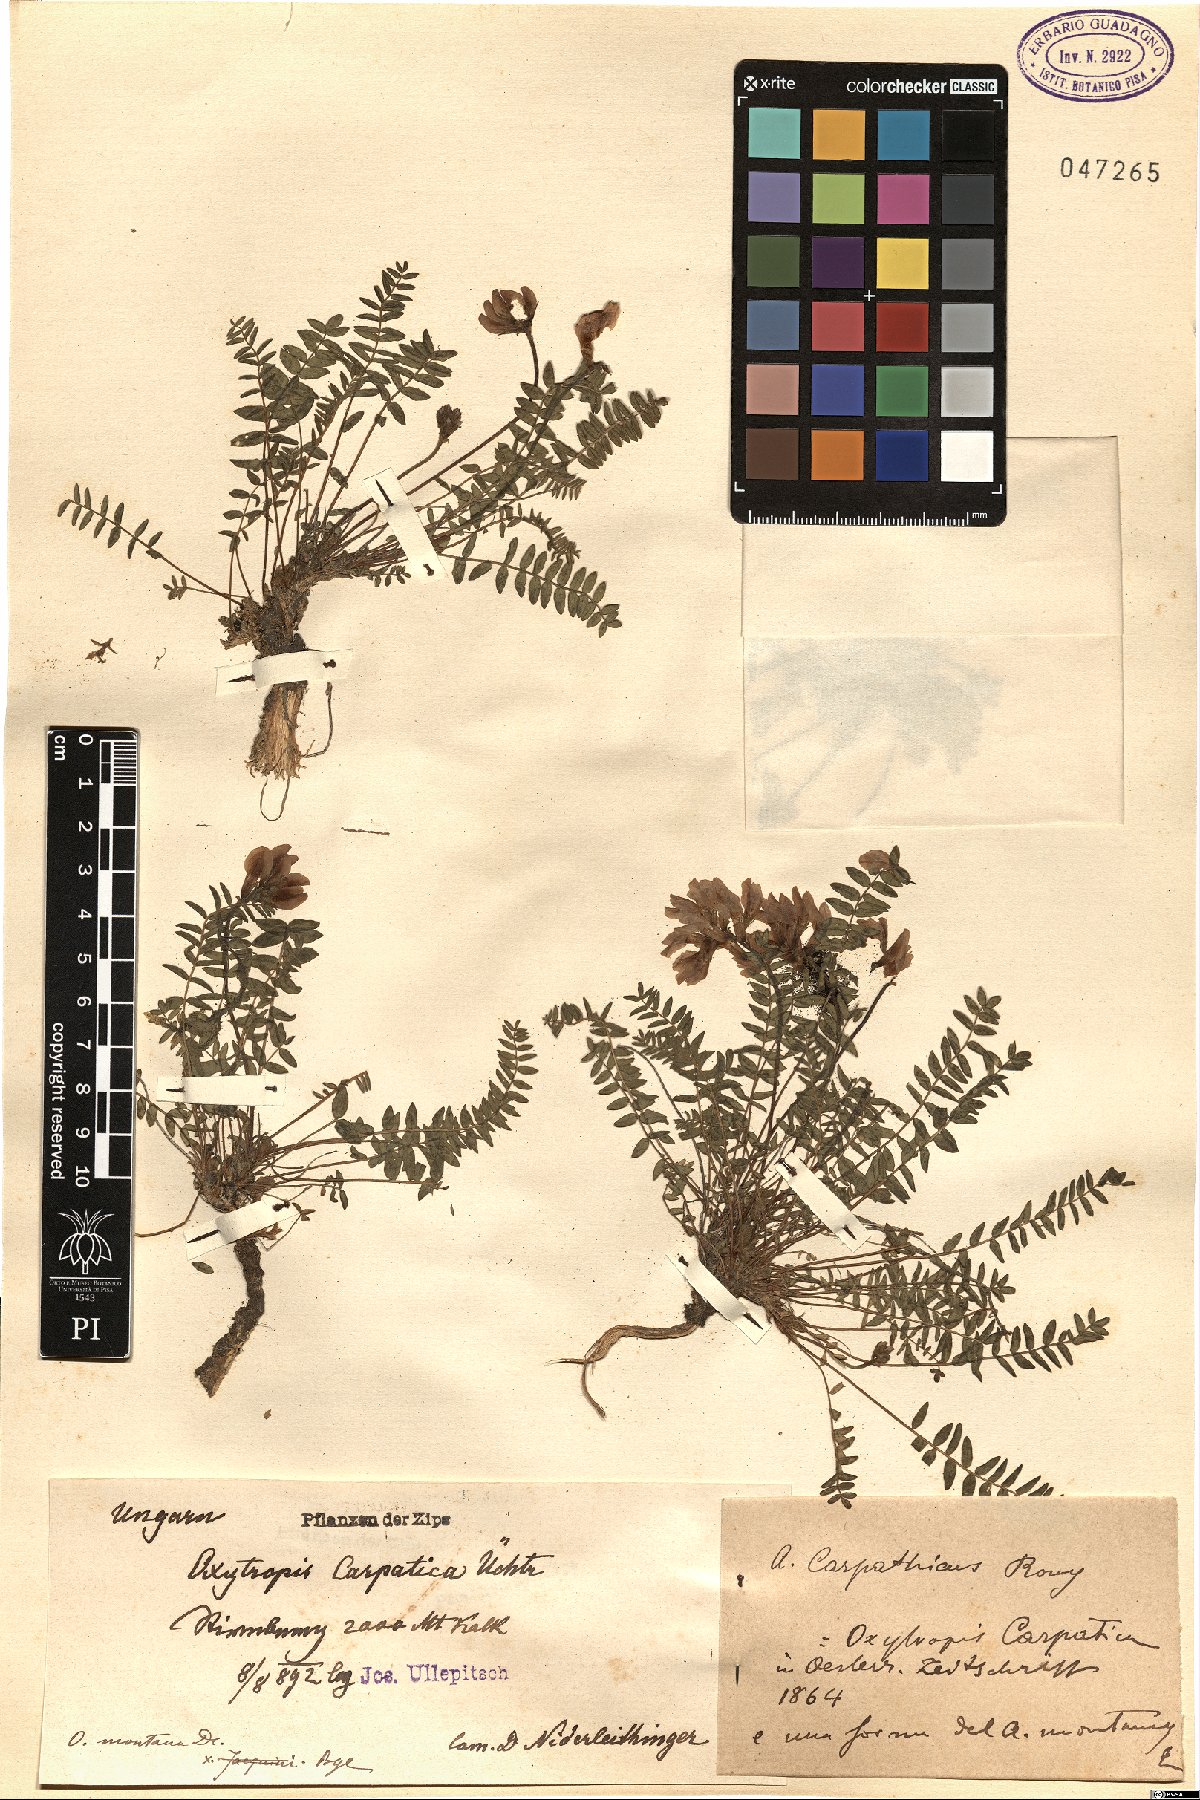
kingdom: Plantae
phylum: Tracheophyta
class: Magnoliopsida
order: Fabales
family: Fabaceae
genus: Oxytropis
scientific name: Oxytropis montana
